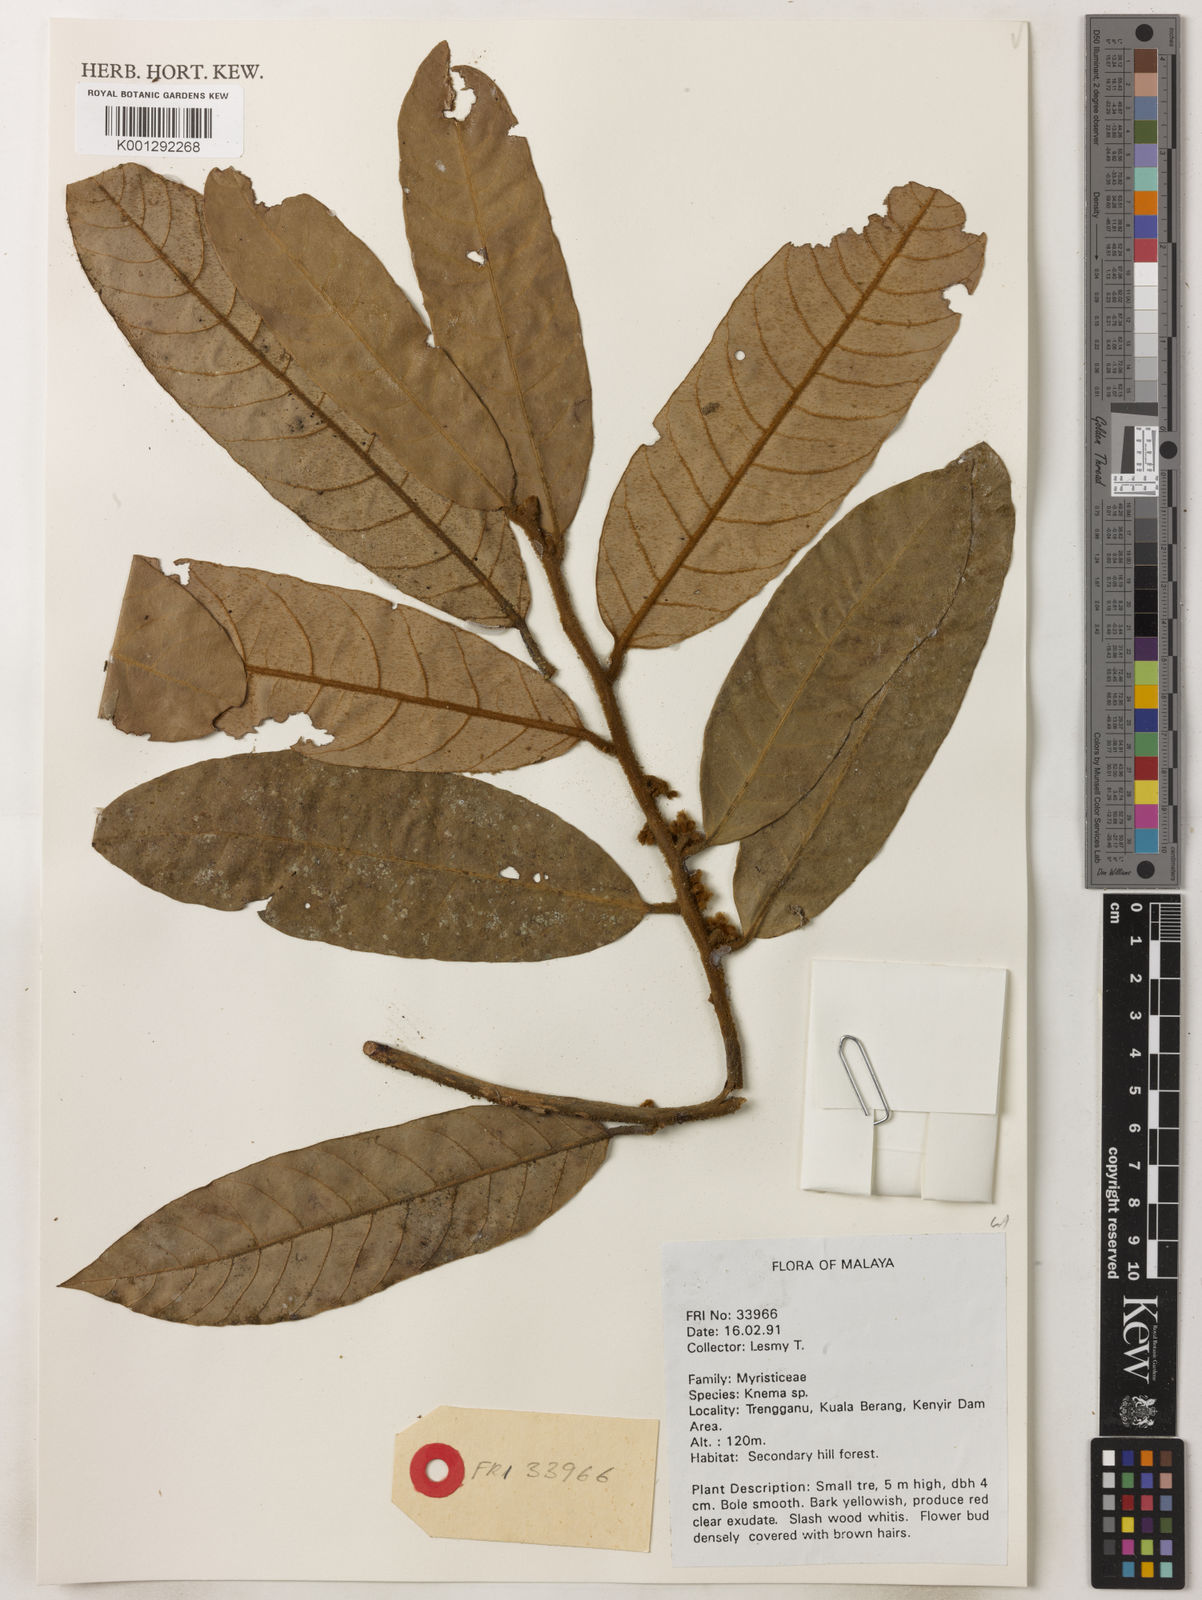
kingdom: Plantae
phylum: Tracheophyta
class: Magnoliopsida
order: Magnoliales
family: Myristicaceae
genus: Knema
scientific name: Knema
